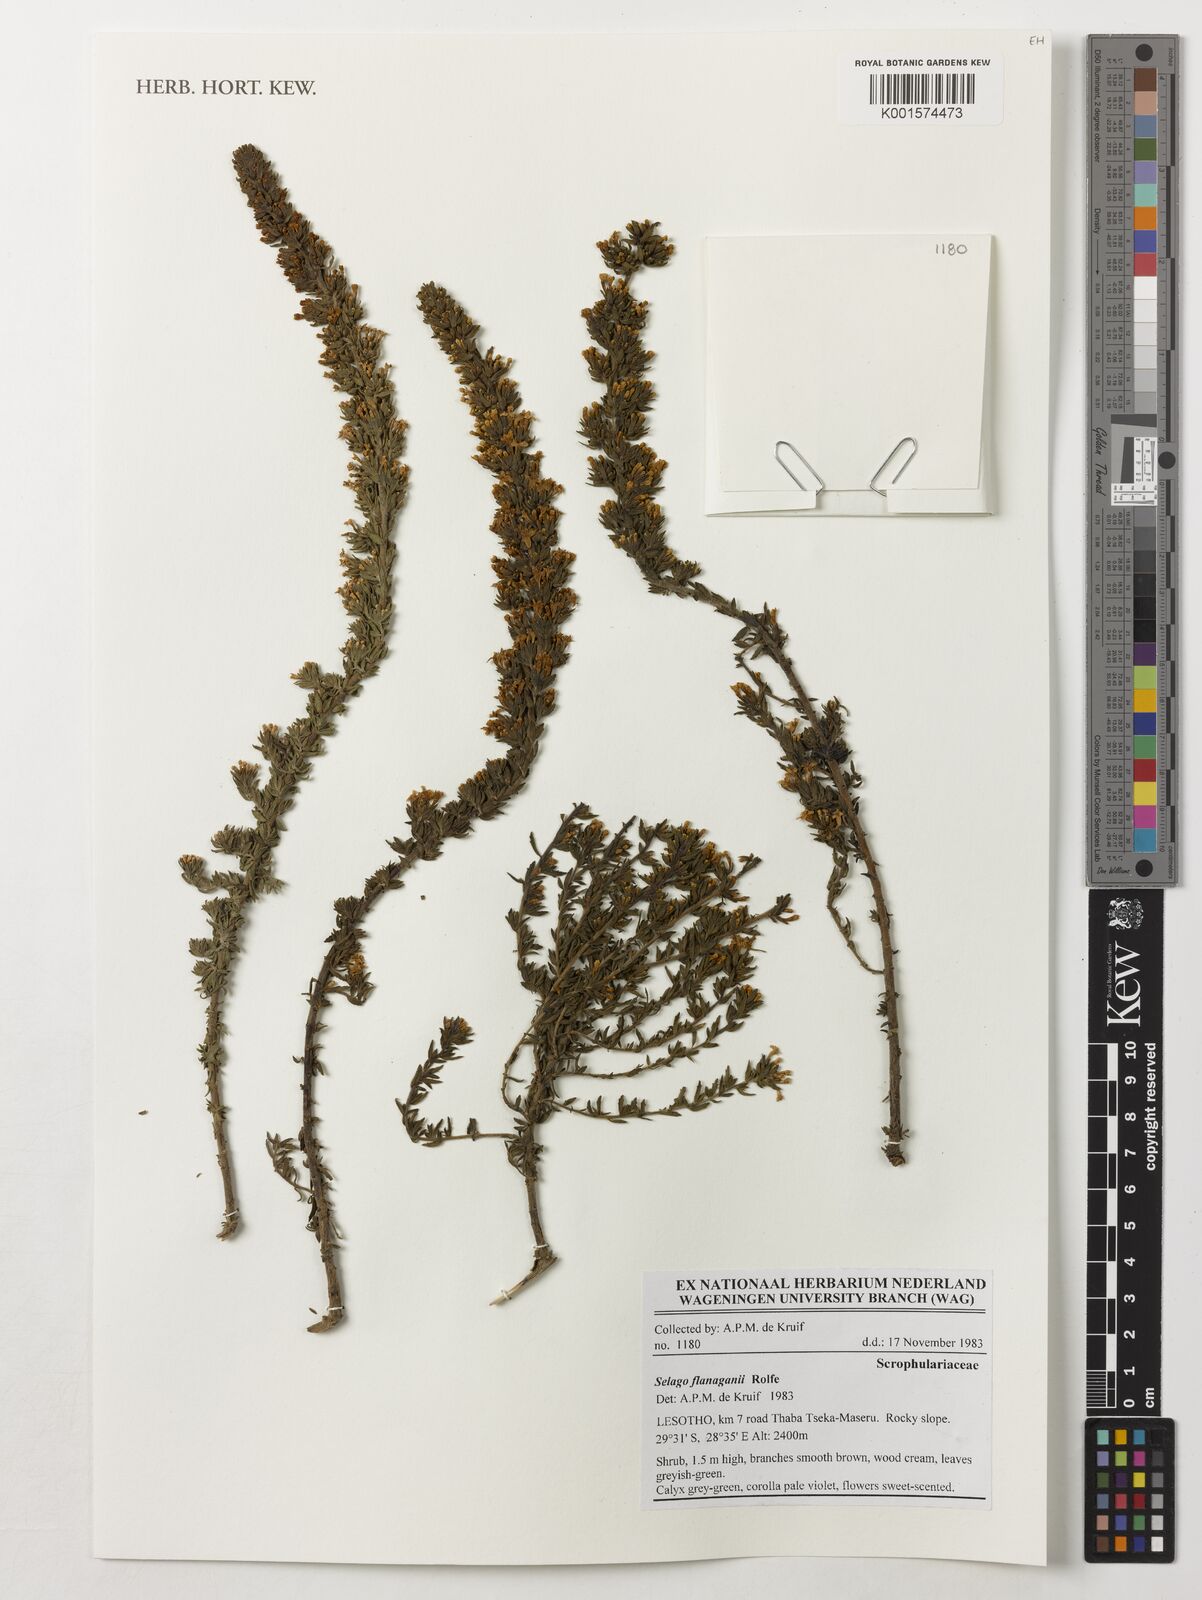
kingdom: Plantae
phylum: Tracheophyta
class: Magnoliopsida
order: Lamiales
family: Scrophulariaceae
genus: Selago
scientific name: Selago flanaganii
